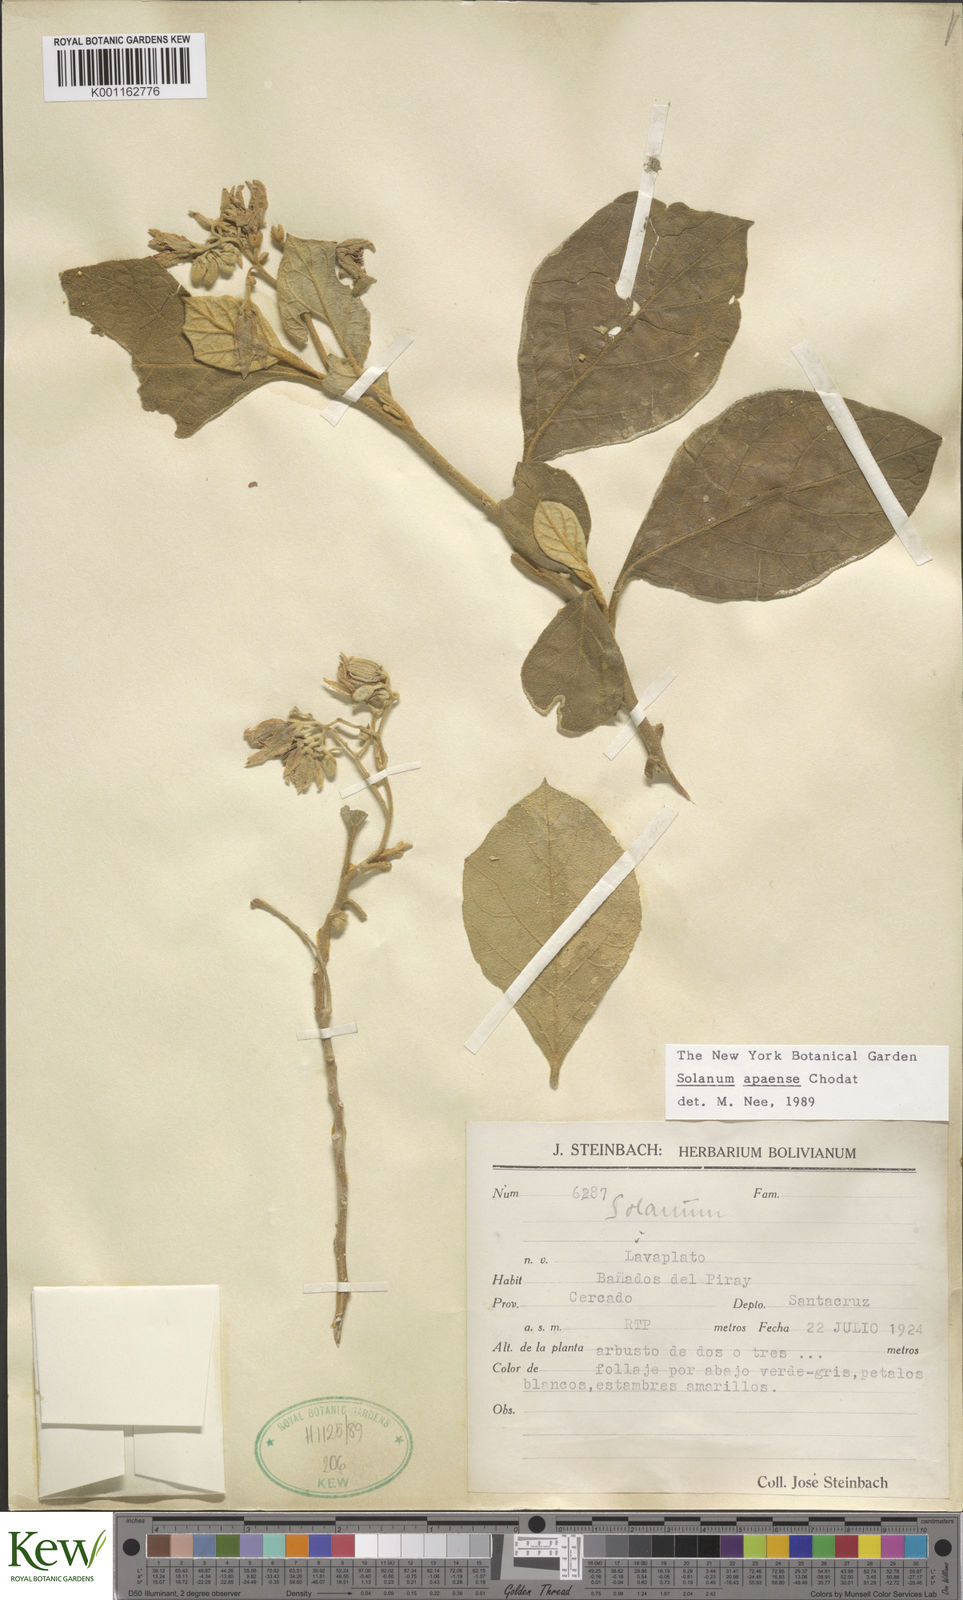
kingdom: Plantae
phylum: Tracheophyta
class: Magnoliopsida
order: Solanales
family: Solanaceae
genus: Solanum
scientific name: Solanum rhytidoandrum
